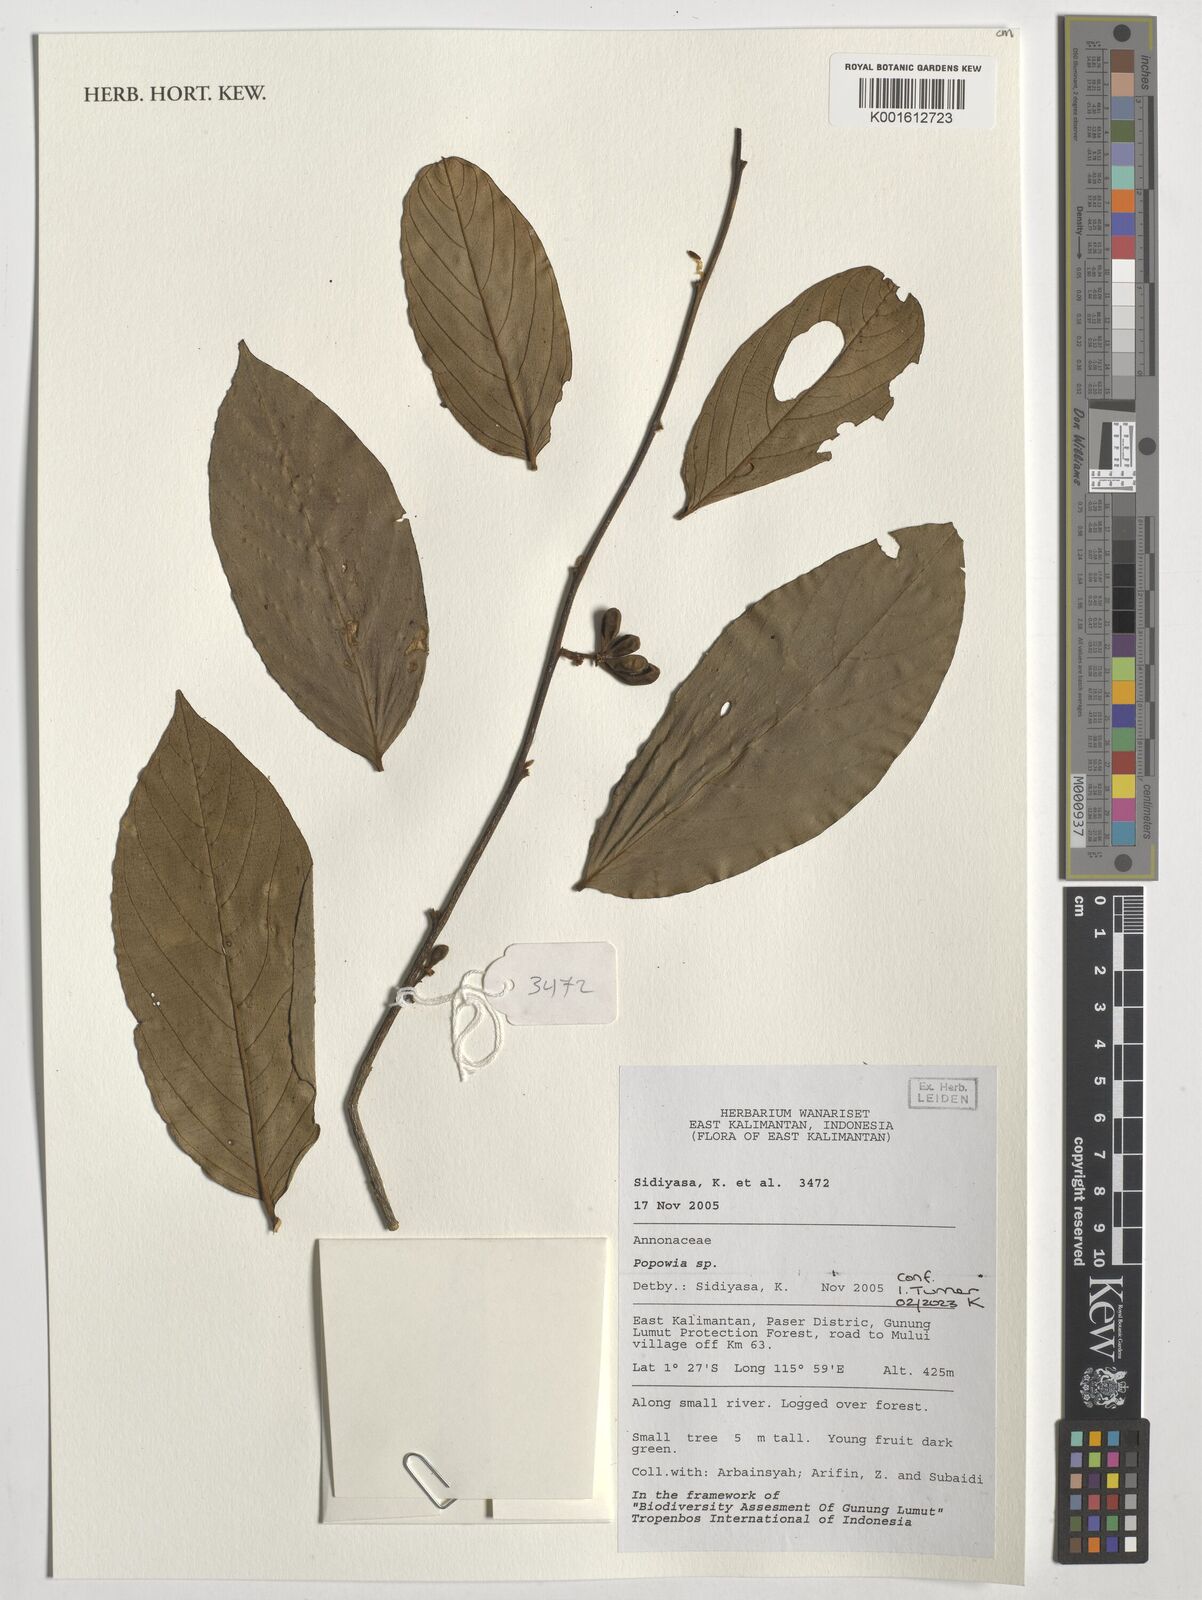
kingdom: Plantae
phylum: Tracheophyta
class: Magnoliopsida
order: Magnoliales
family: Annonaceae
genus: Popowia
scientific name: Popowia
